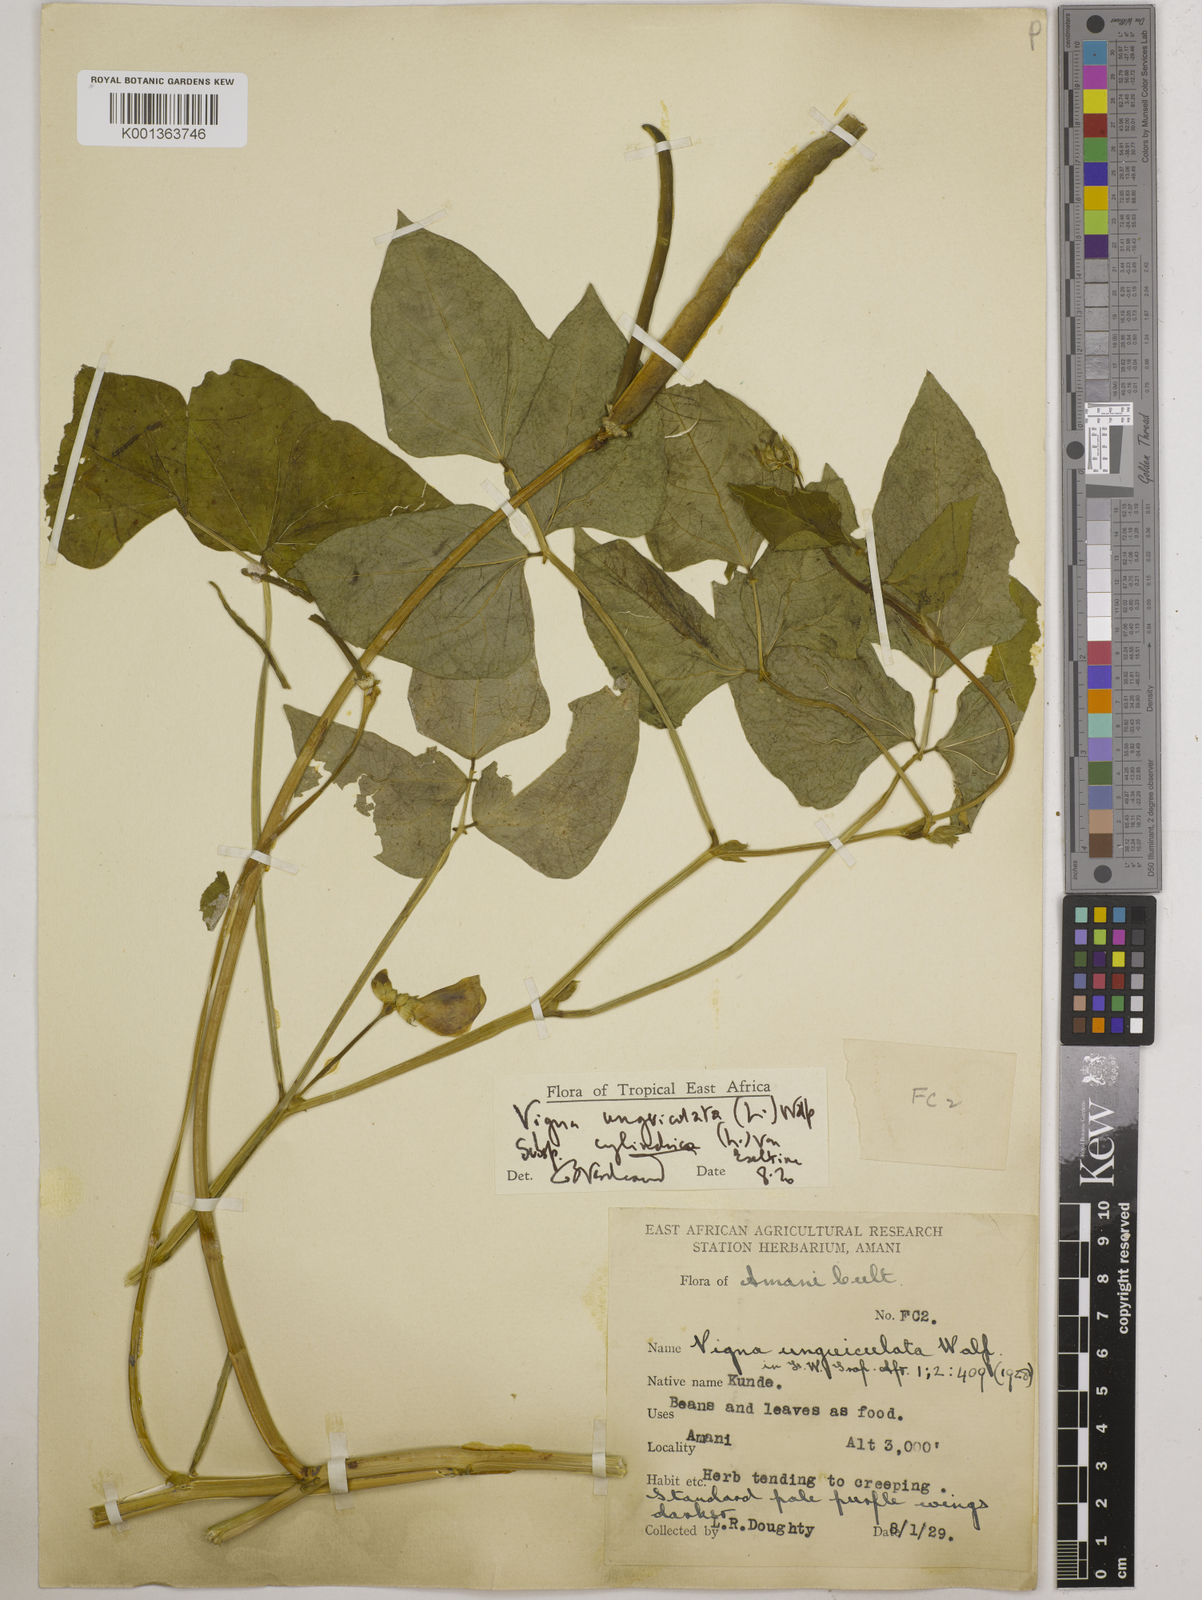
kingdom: Plantae
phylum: Tracheophyta
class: Magnoliopsida
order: Fabales
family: Fabaceae
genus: Vigna
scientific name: Vigna
